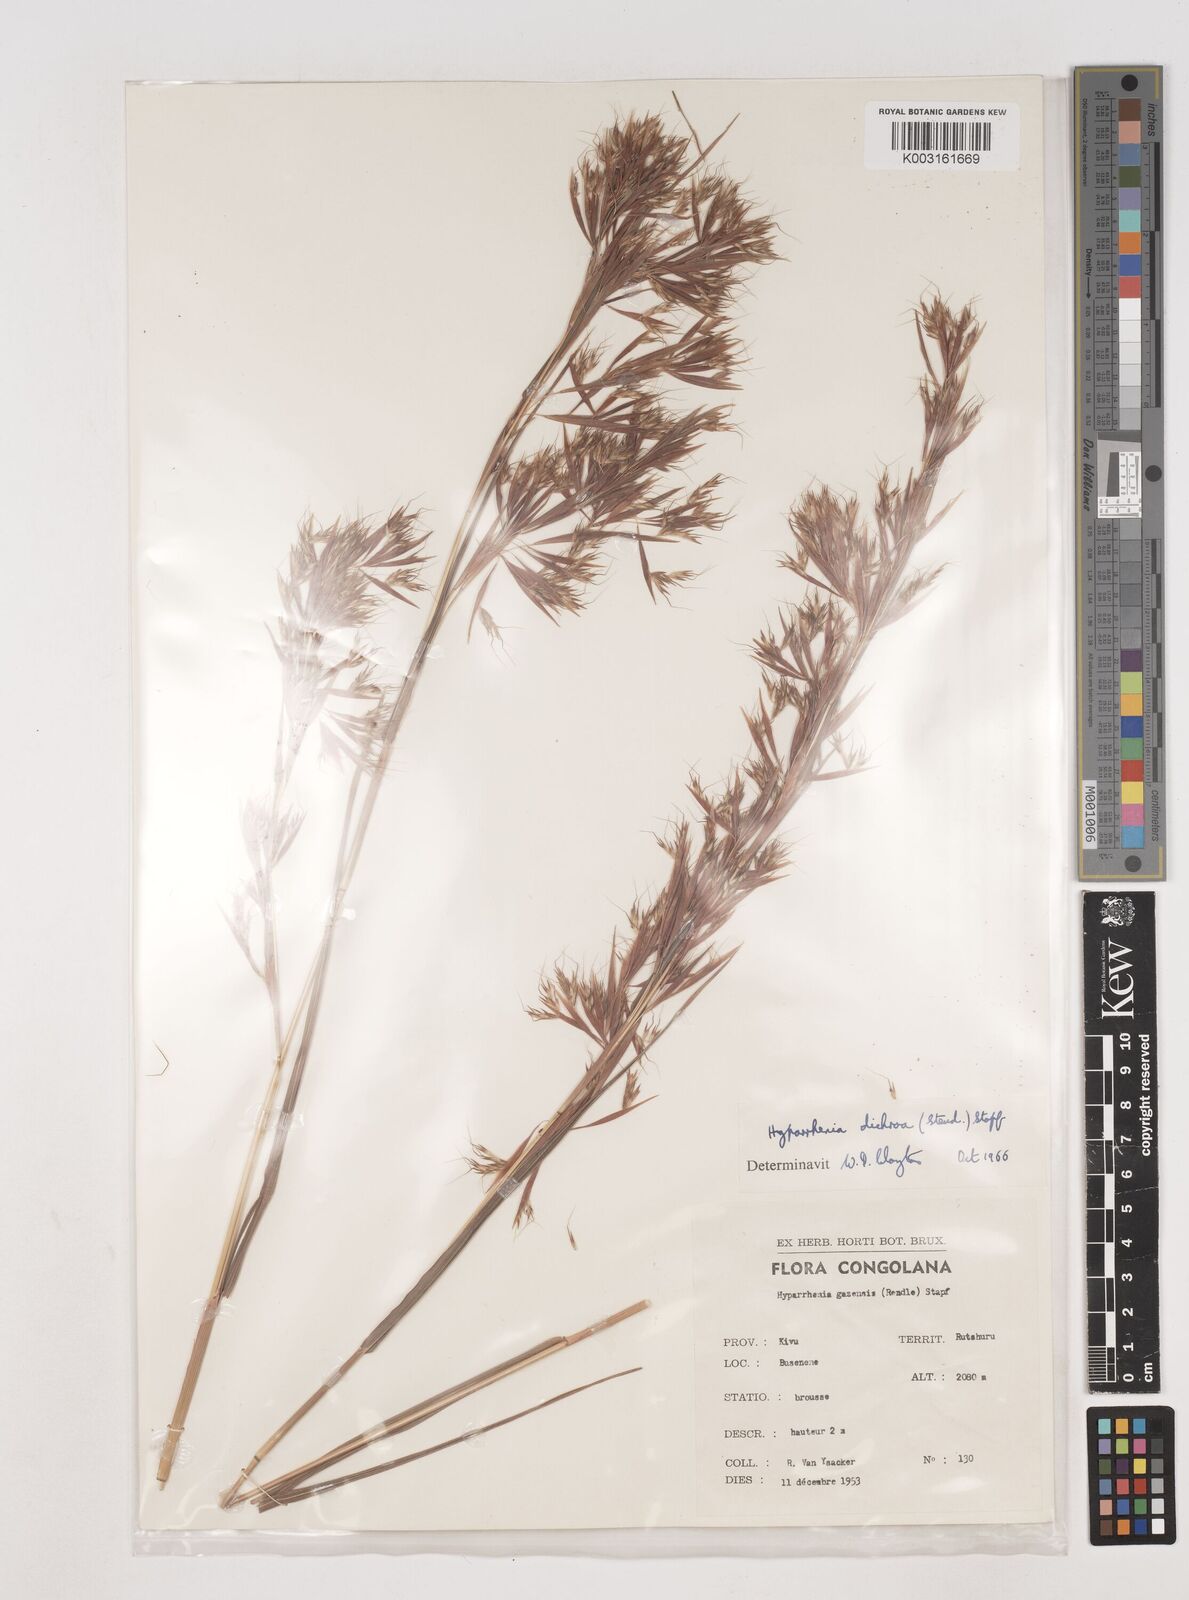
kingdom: Plantae
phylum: Tracheophyta
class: Liliopsida
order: Poales
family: Poaceae
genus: Hyparrhenia
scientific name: Hyparrhenia dichroa
